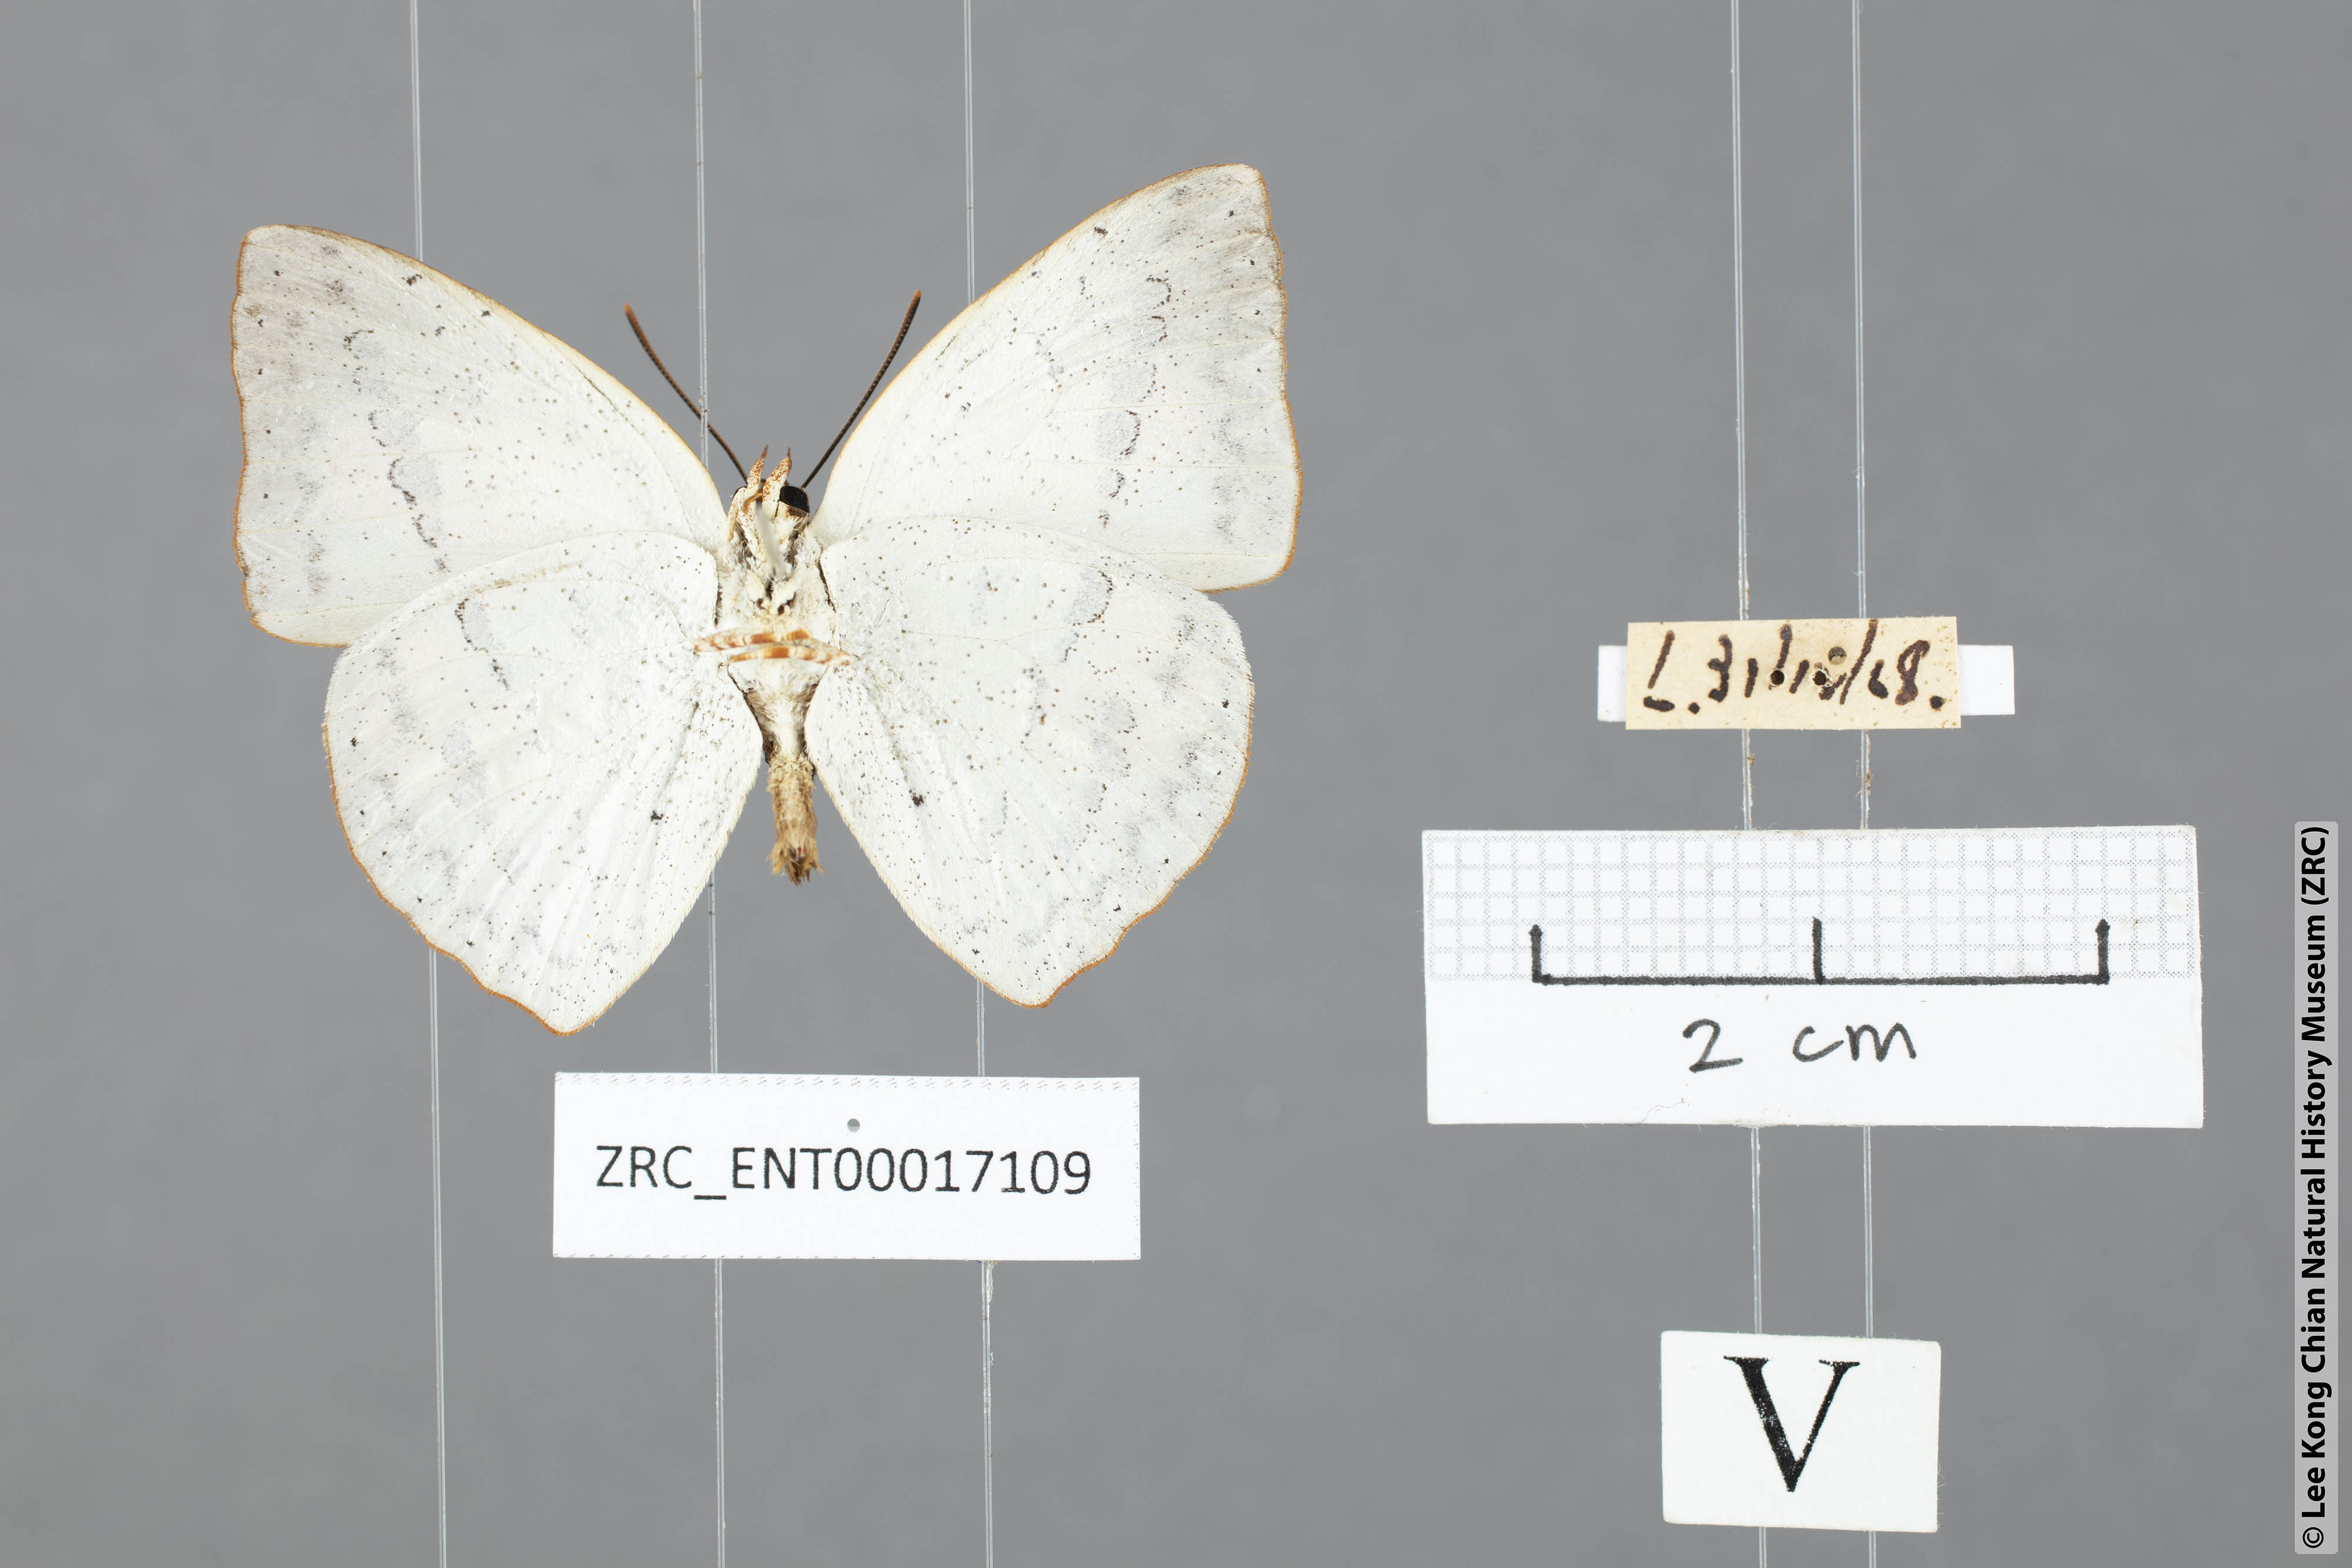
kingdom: Animalia
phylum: Arthropoda
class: Insecta
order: Lepidoptera
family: Lycaenidae
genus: Curetis
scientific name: Curetis bulis
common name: Bright sunbeam
